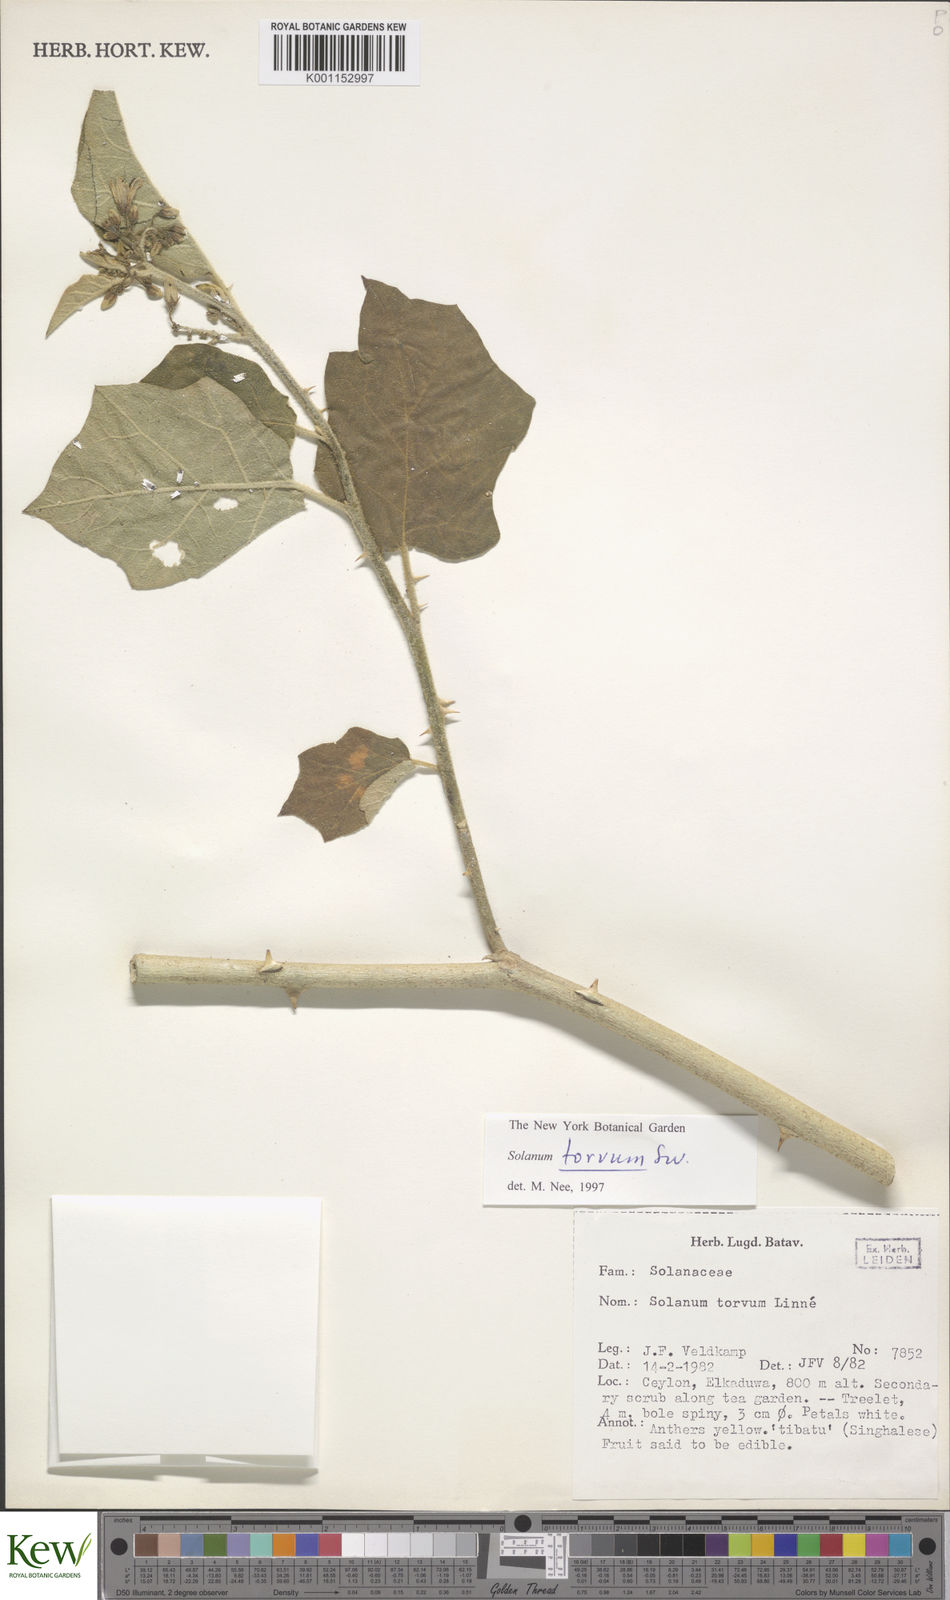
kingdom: Plantae
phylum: Tracheophyta
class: Magnoliopsida
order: Solanales
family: Solanaceae
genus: Solanum
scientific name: Solanum torvum
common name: Turkey berry
